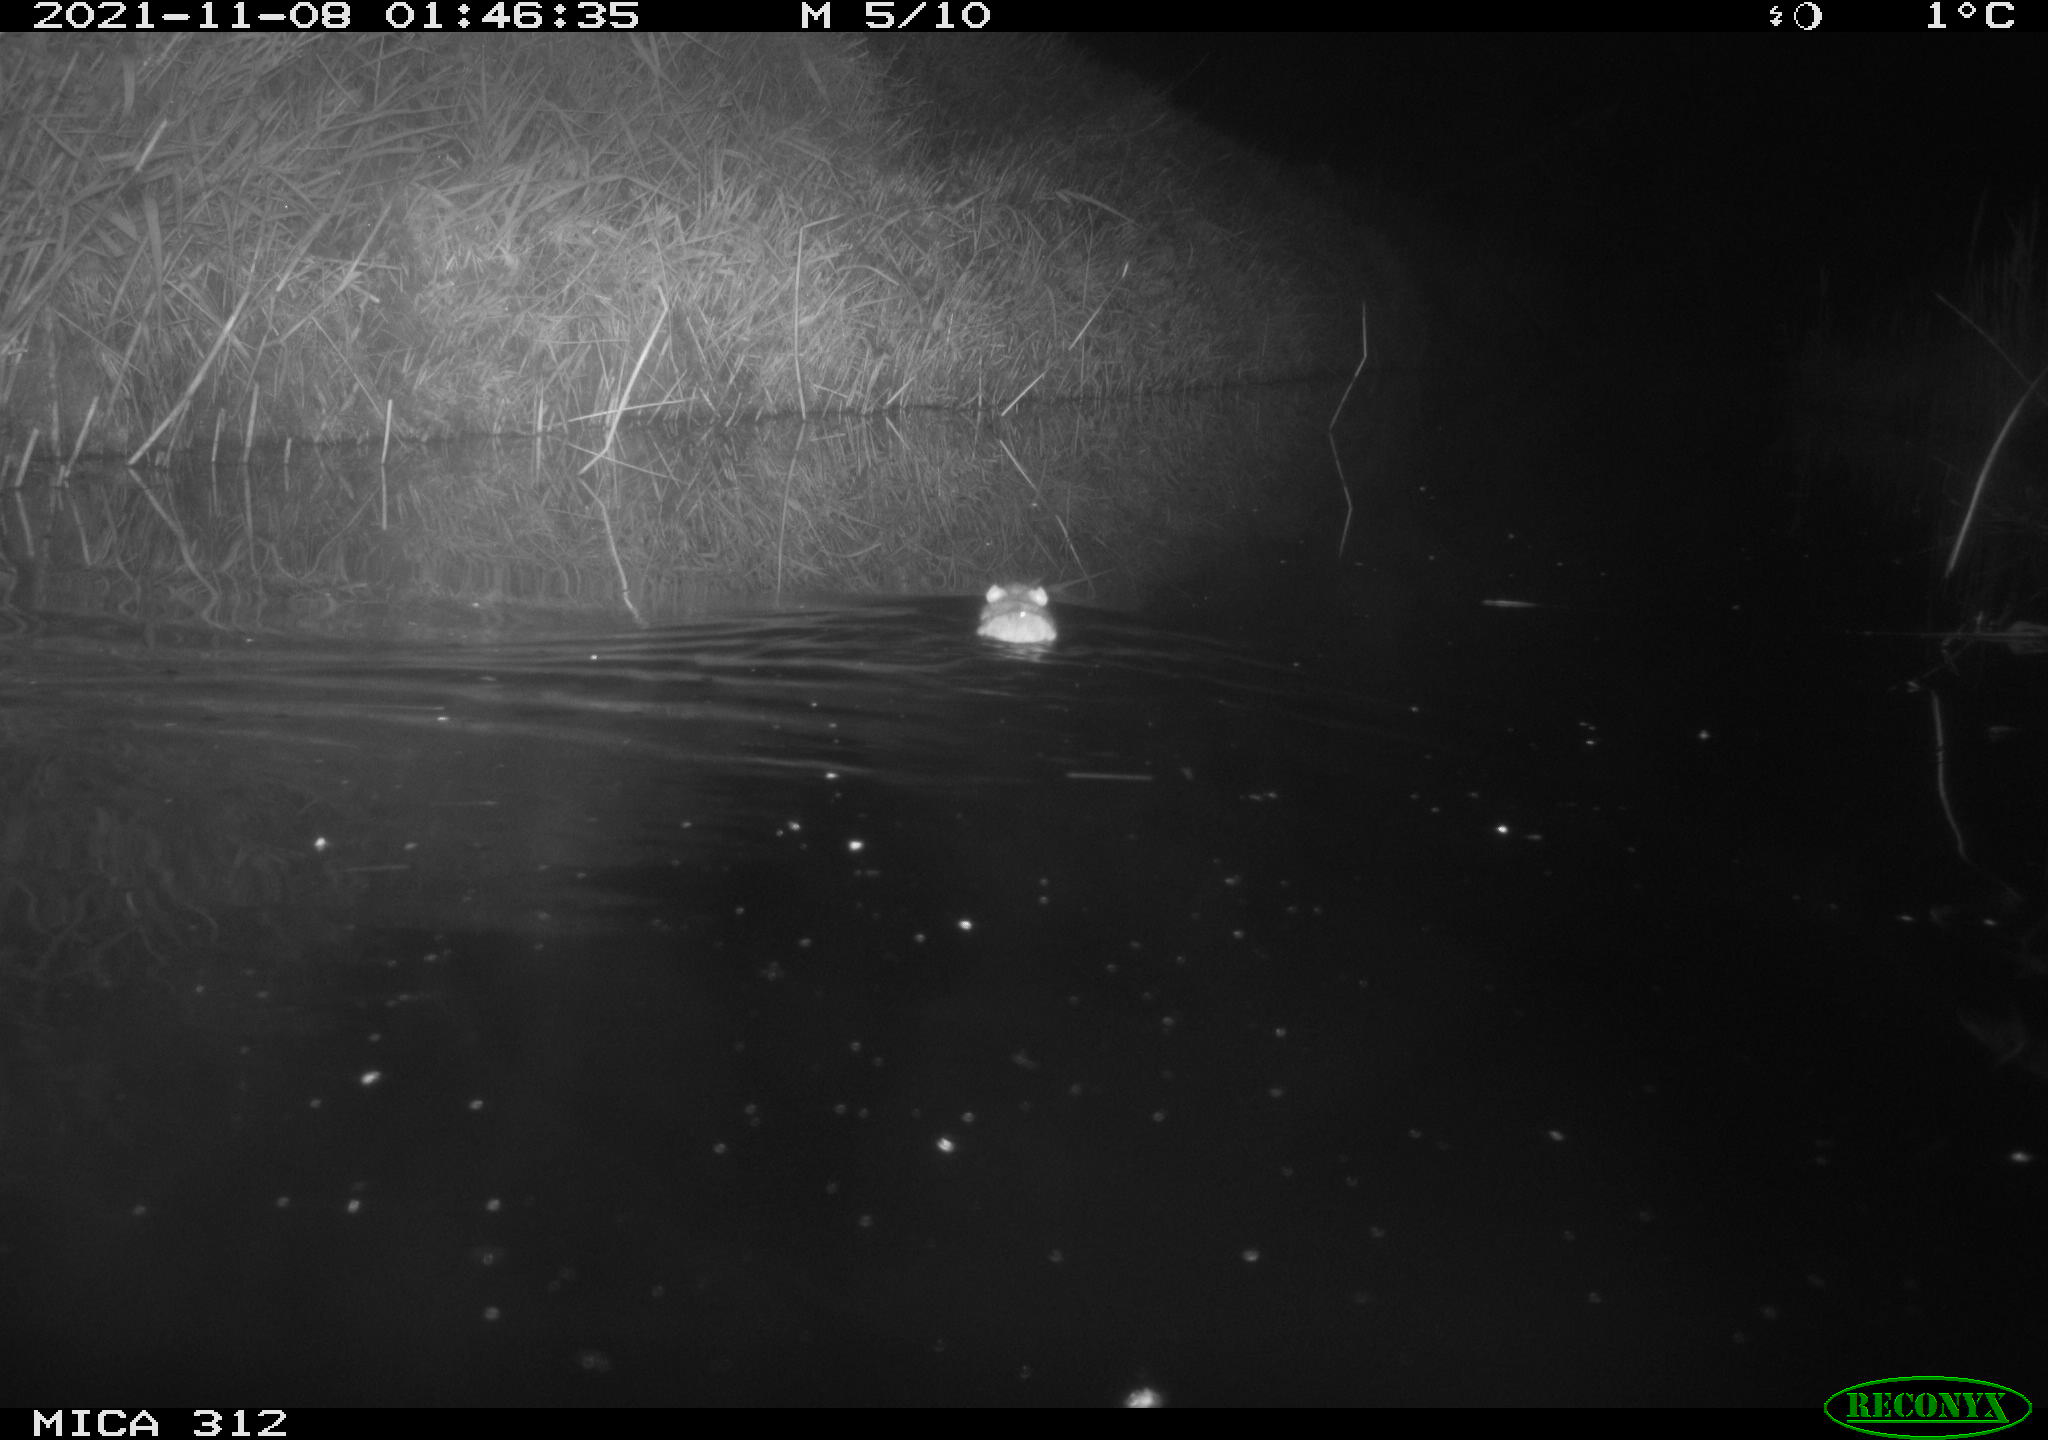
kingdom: Animalia
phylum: Chordata
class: Mammalia
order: Rodentia
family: Muridae
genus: Rattus
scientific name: Rattus norvegicus
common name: Brown rat
